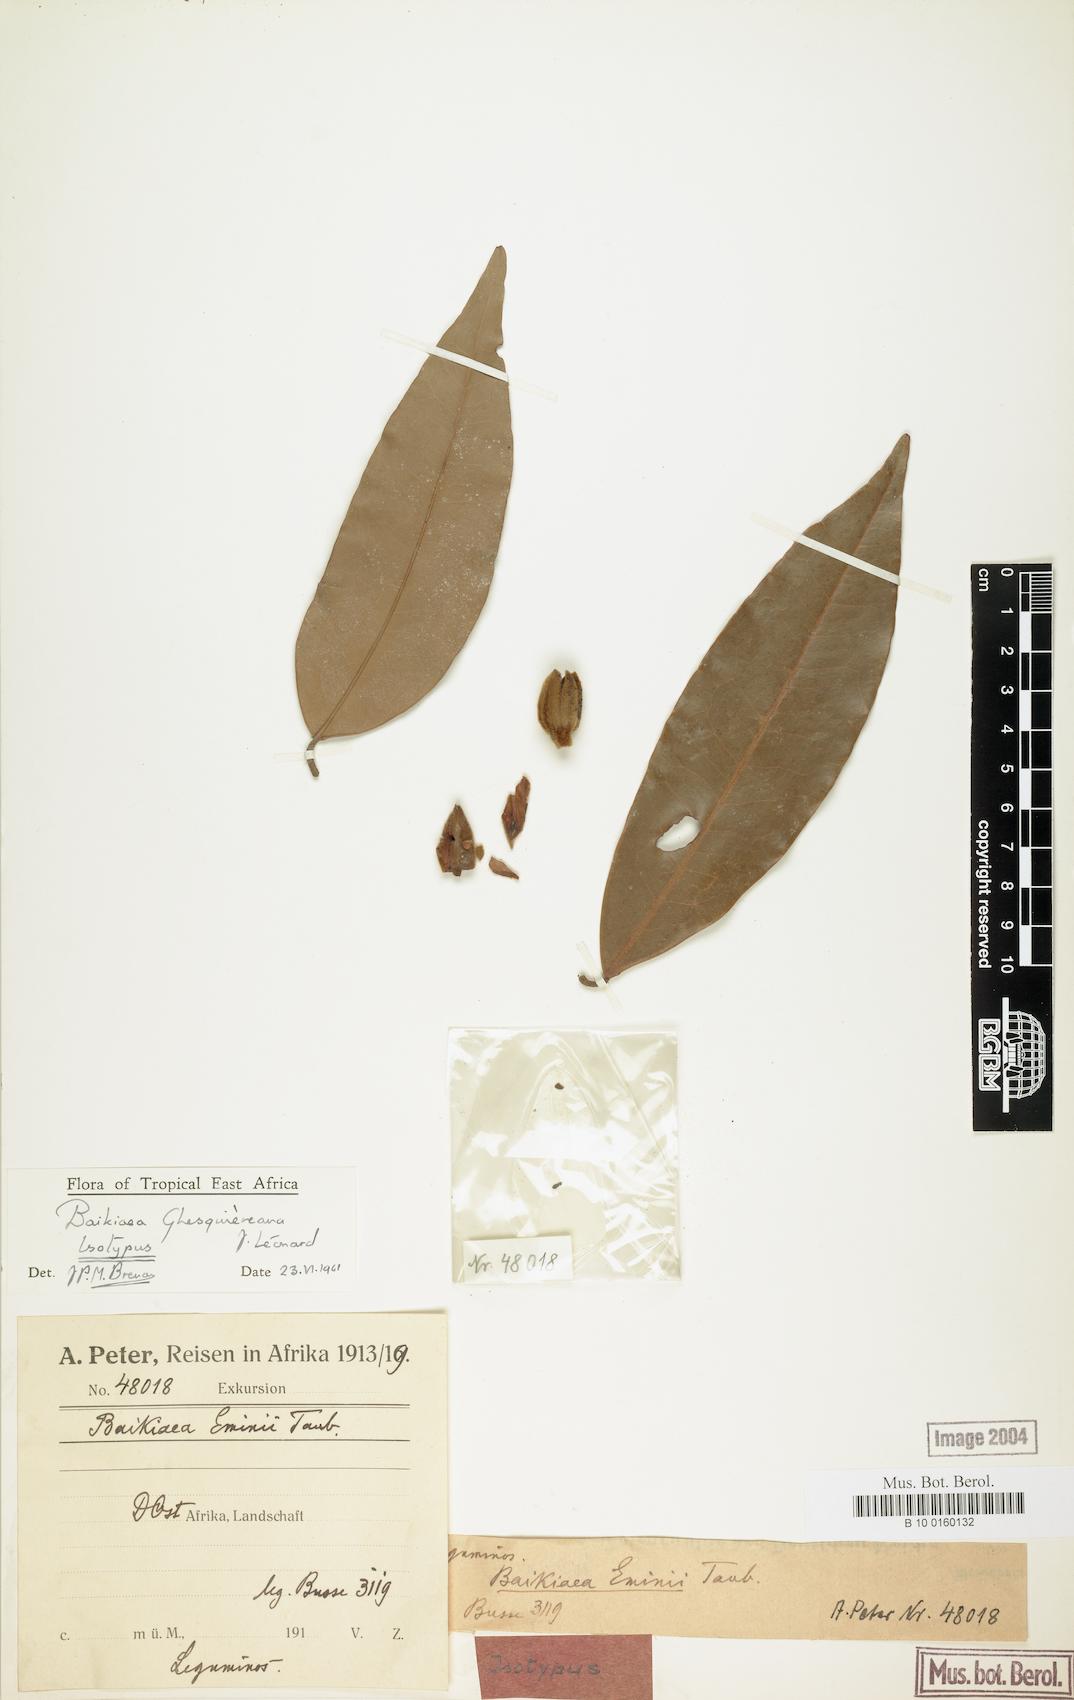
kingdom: Plantae
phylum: Tracheophyta
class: Magnoliopsida
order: Fabales
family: Fabaceae
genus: Baikiaea
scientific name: Baikiaea ghesquiereana
